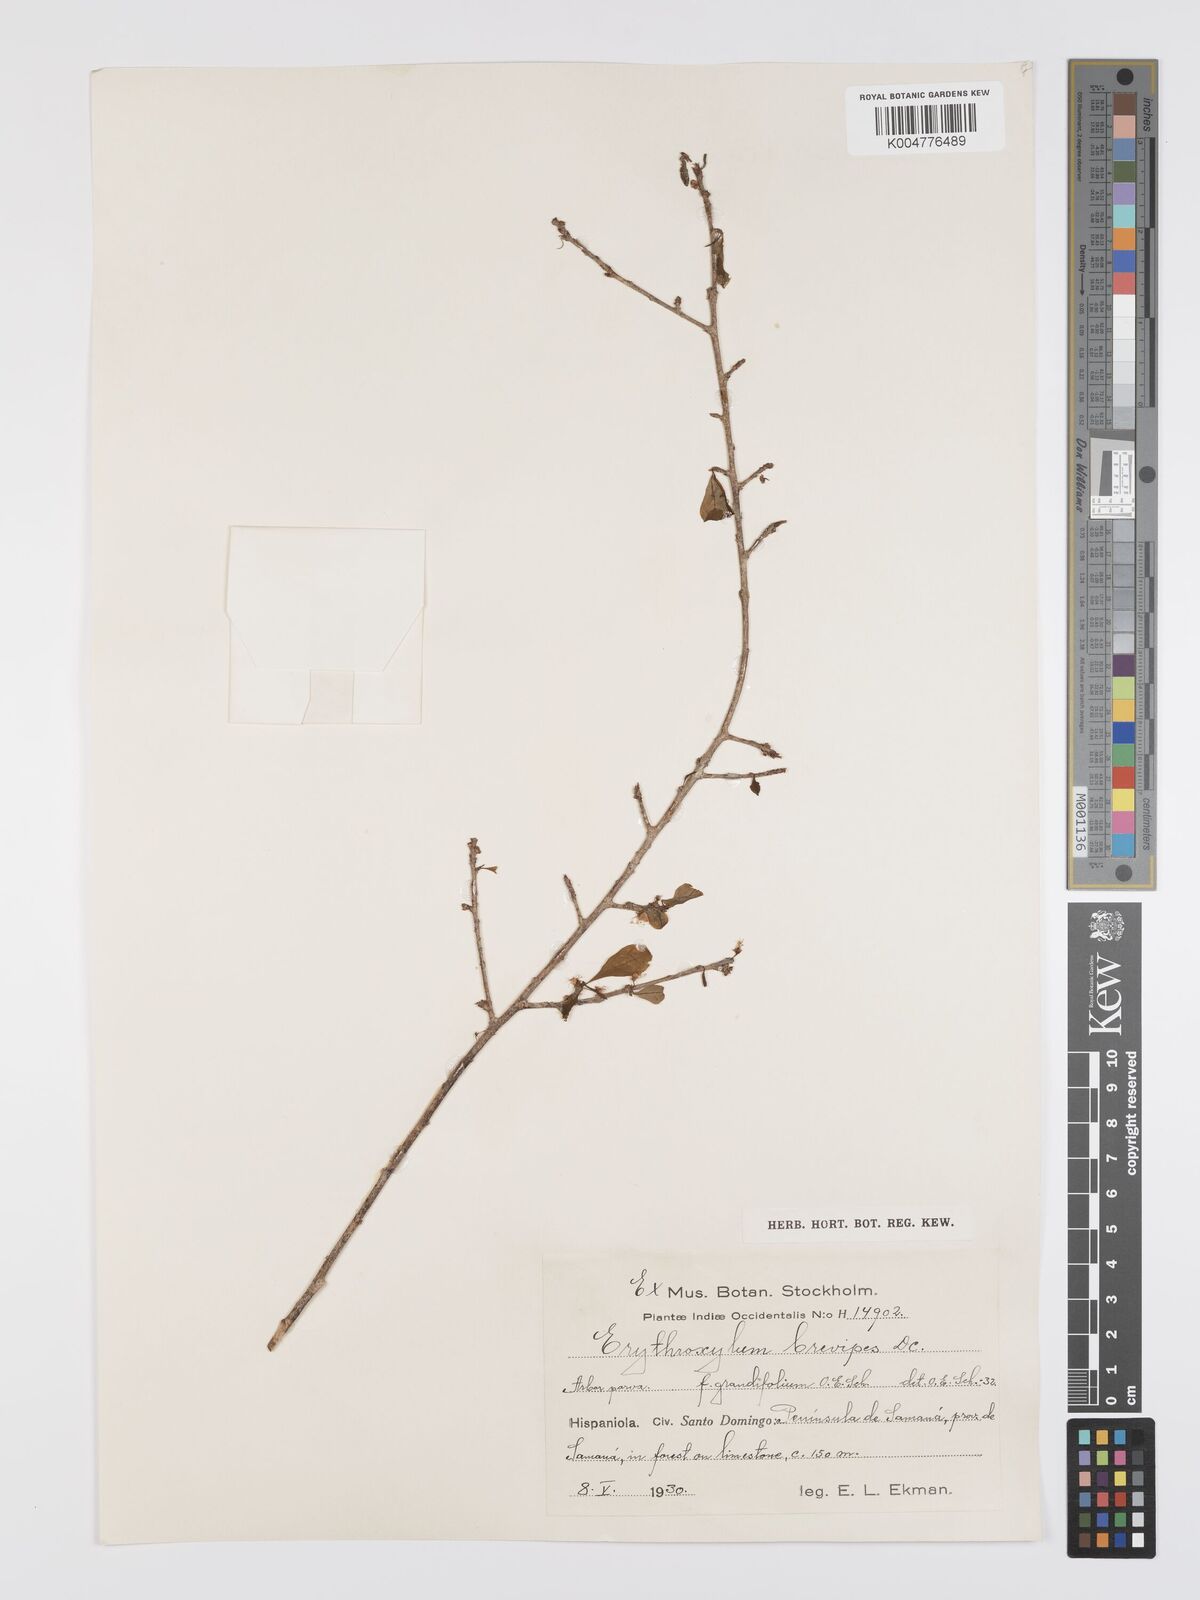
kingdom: Plantae
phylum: Tracheophyta
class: Magnoliopsida
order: Malpighiales
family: Erythroxylaceae
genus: Erythroxylum
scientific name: Erythroxylum brevipes
